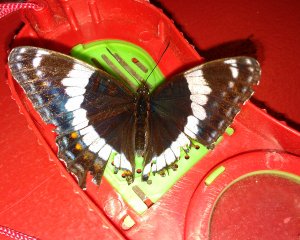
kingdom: Animalia
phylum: Arthropoda
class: Insecta
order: Lepidoptera
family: Nymphalidae
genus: Limenitis
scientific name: Limenitis arthemis
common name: Red-spotted Admiral
